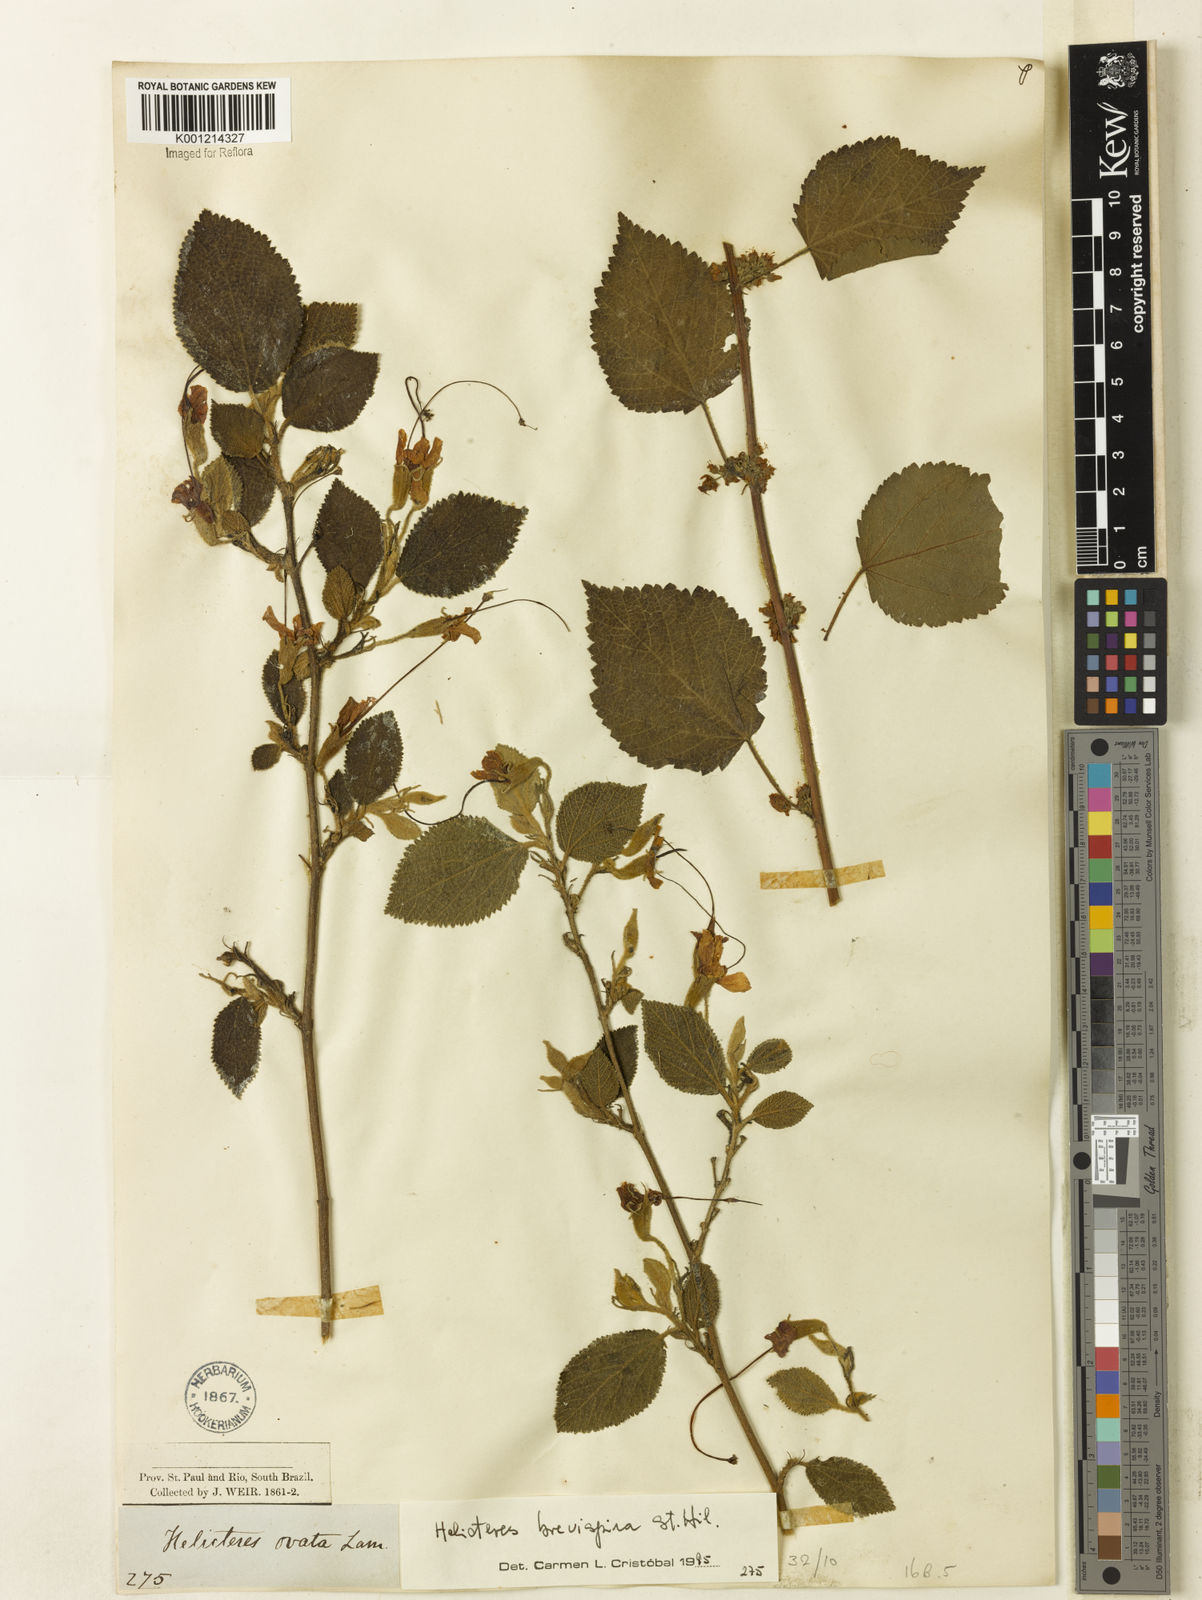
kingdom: Plantae
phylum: Tracheophyta
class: Magnoliopsida
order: Malvales
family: Malvaceae
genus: Helicteres
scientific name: Helicteres
